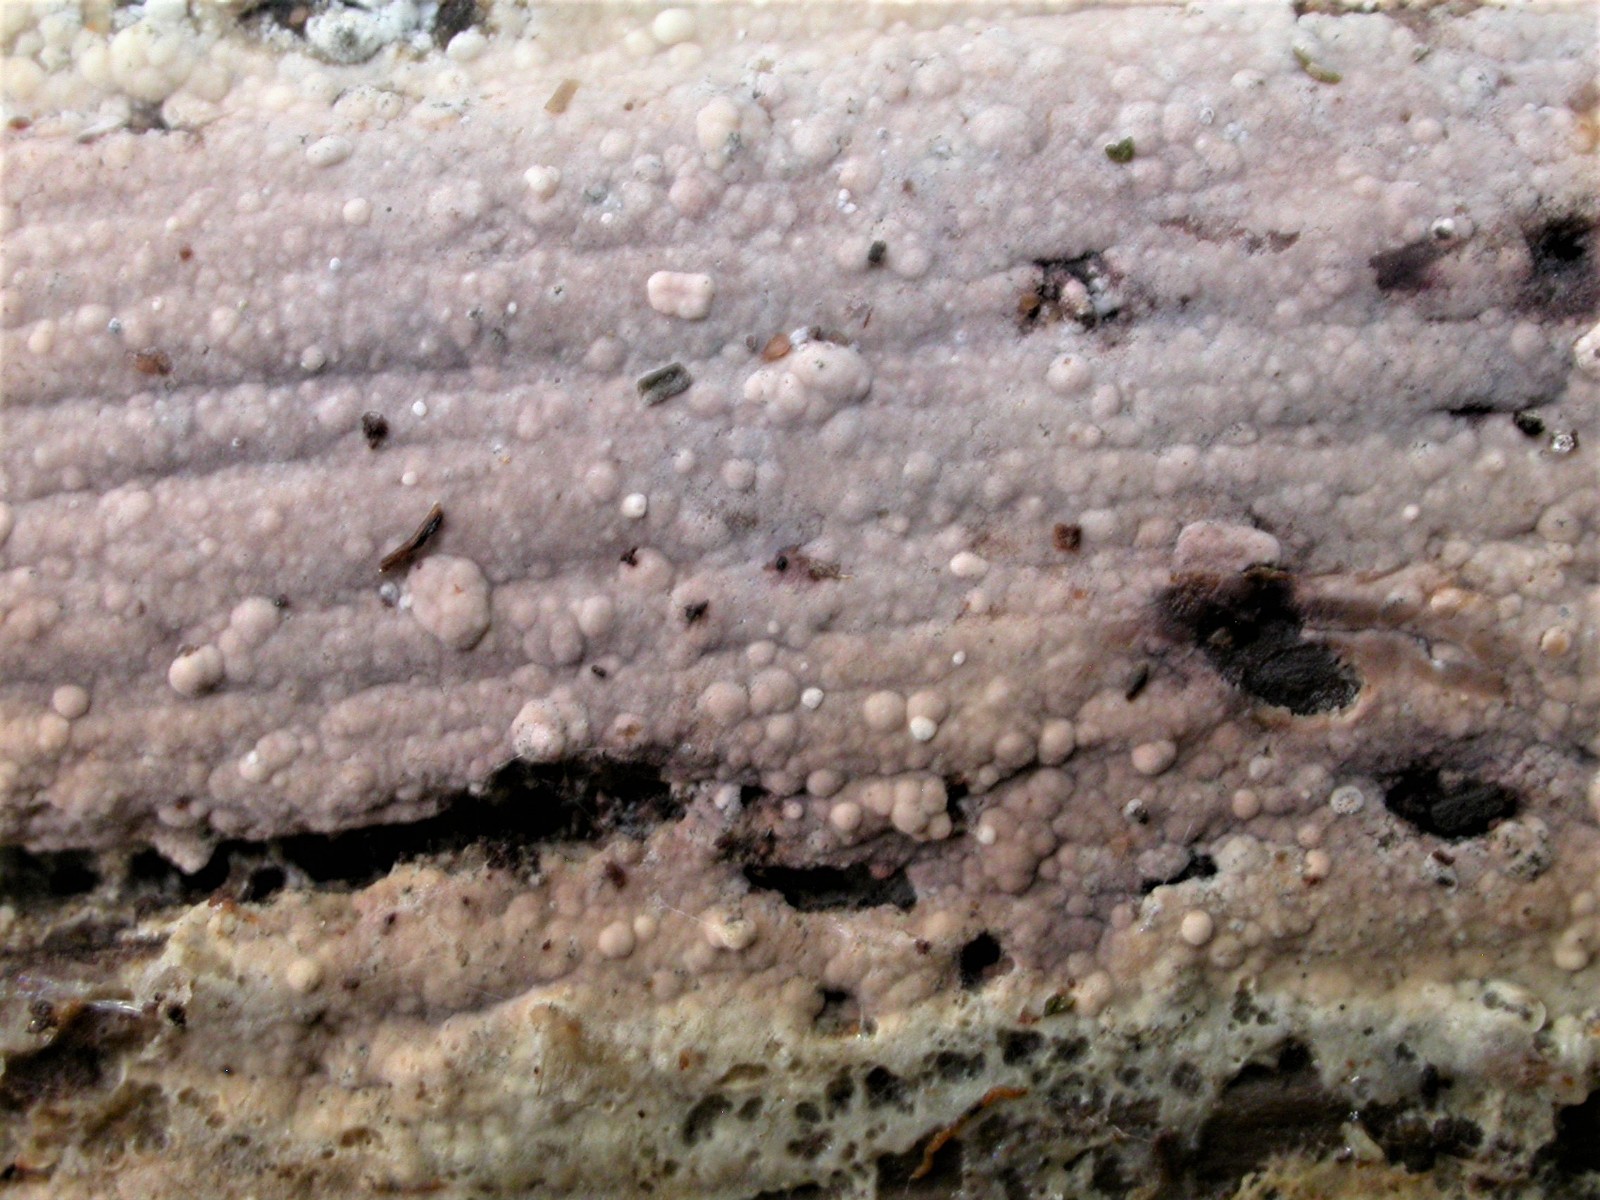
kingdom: Fungi
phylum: Basidiomycota
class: Agaricomycetes
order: Polyporales
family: Hyphodermataceae
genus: Hyphoderma
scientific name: Hyphoderma roseocremeum
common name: lillaplettet kalkskind
